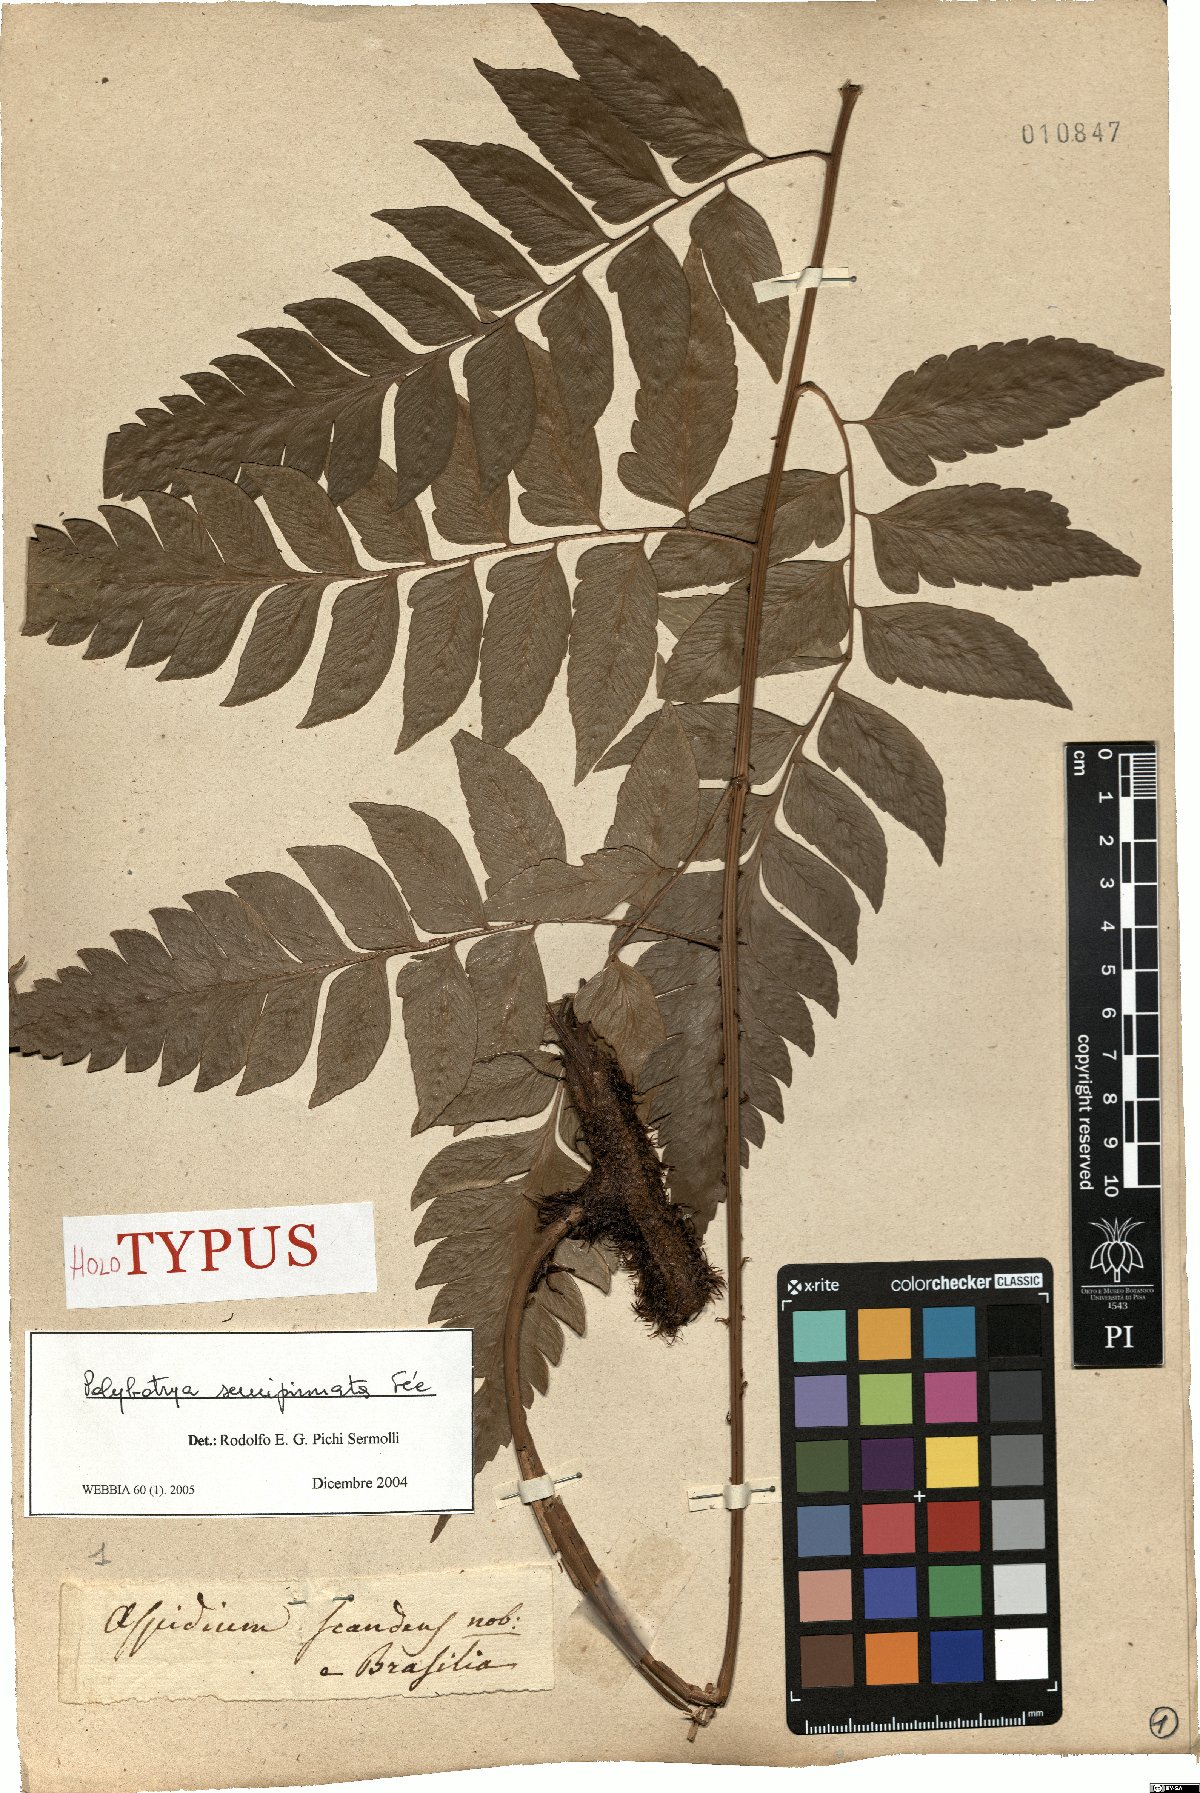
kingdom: Plantae
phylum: Tracheophyta
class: Polypodiopsida
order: Polypodiales
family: Dryopteridaceae
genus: Polybotrya
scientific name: Polybotrya semipinnata
